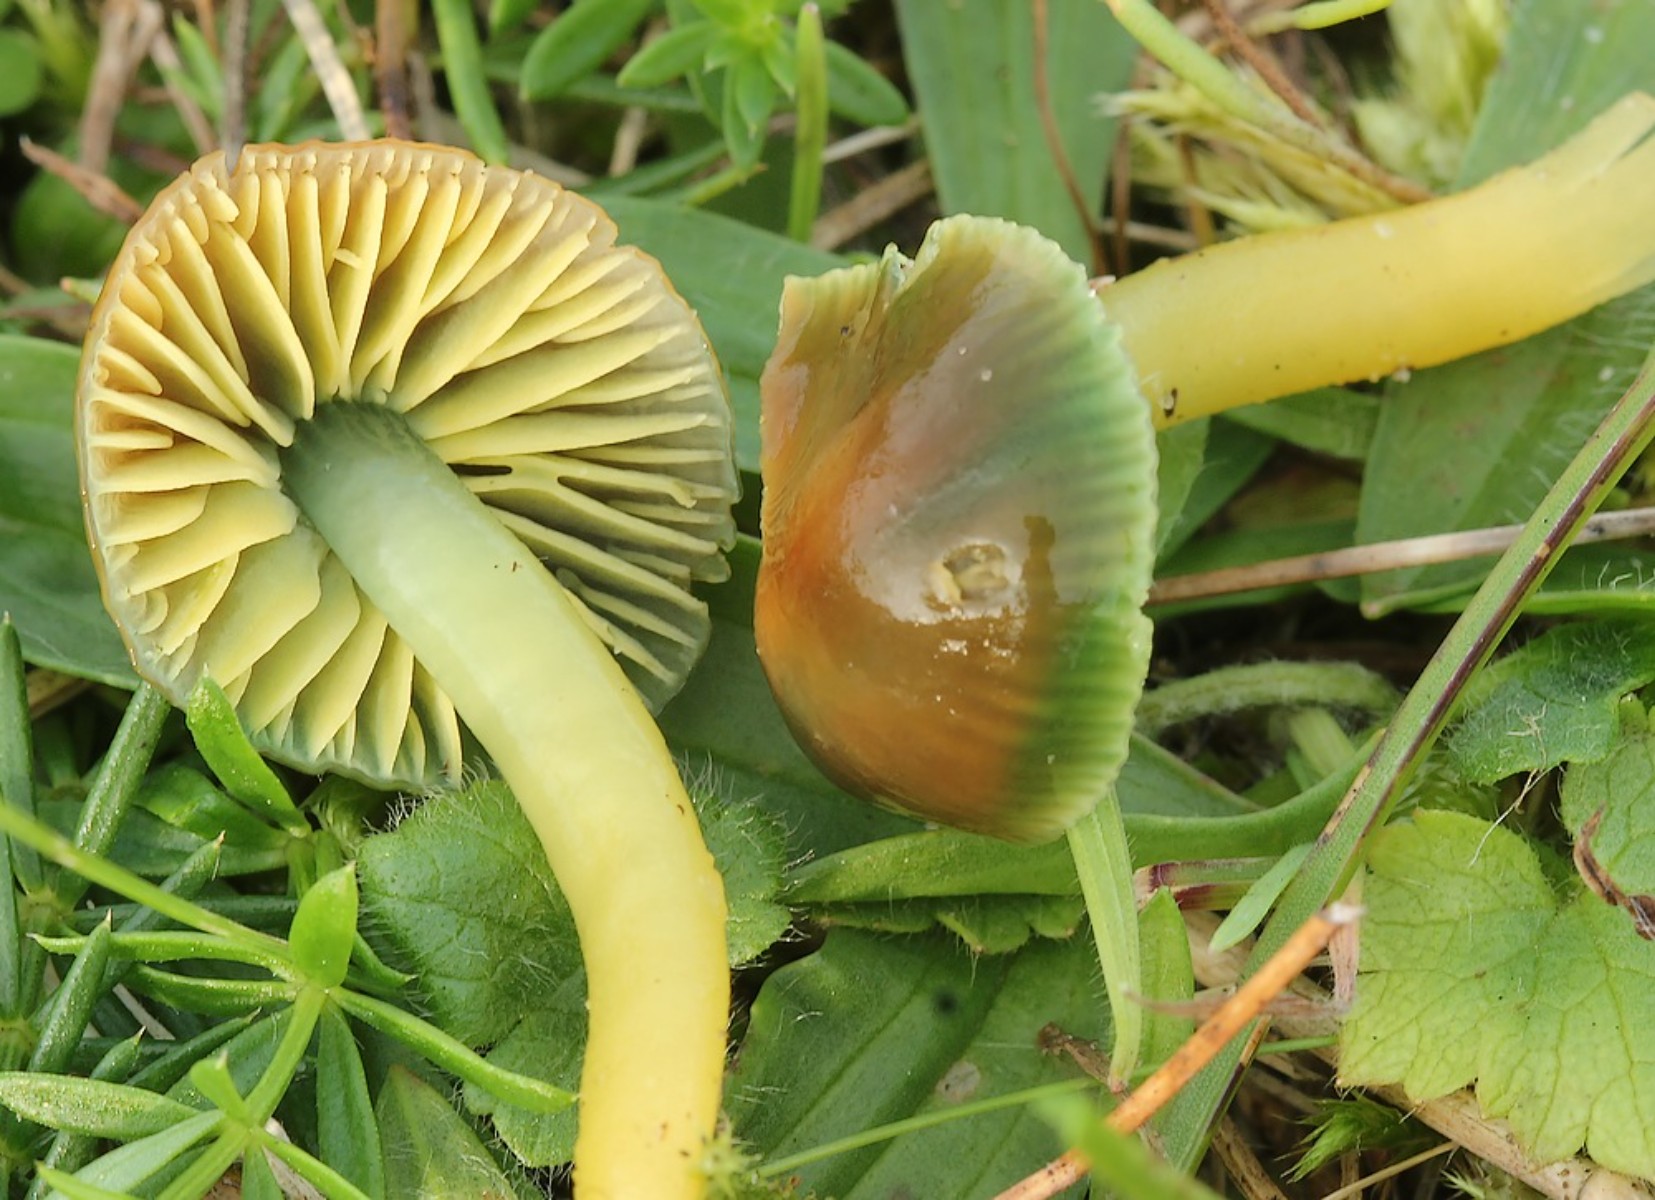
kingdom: Fungi
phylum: Basidiomycota
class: Agaricomycetes
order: Agaricales
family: Hygrophoraceae
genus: Gliophorus
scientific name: Gliophorus psittacinus
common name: papegøje-vokshat
